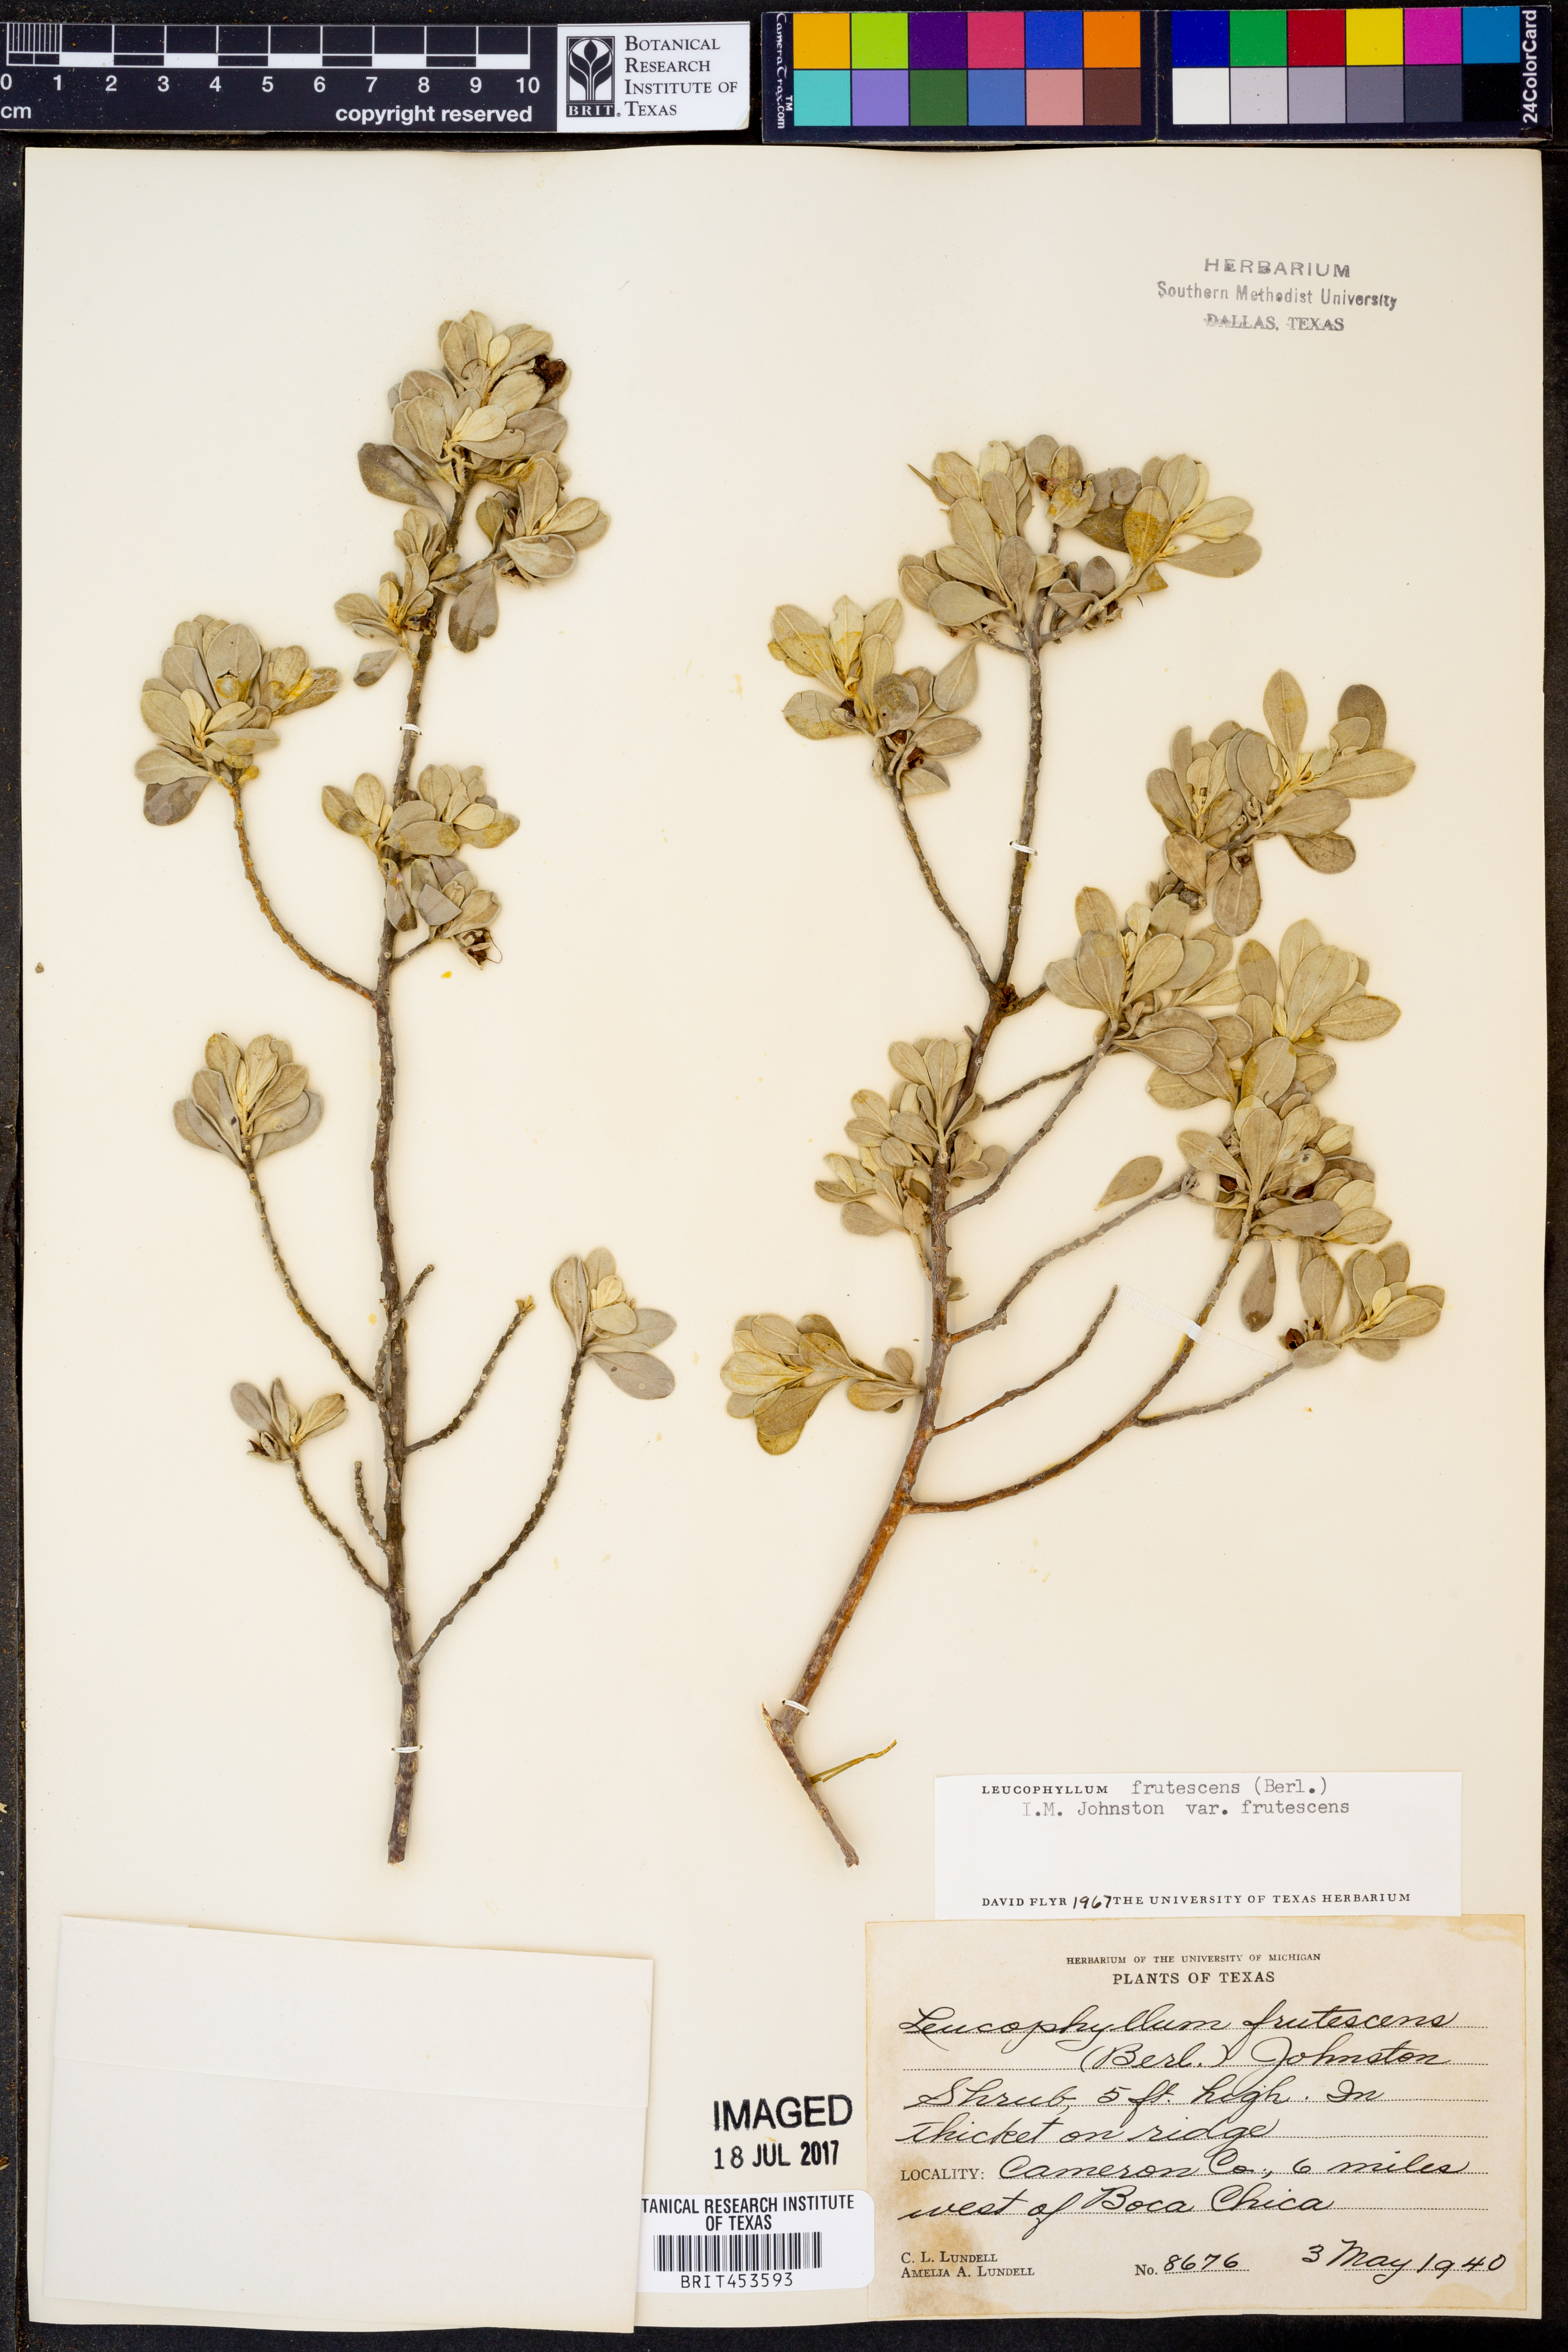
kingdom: Plantae
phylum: Tracheophyta
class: Magnoliopsida
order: Lamiales
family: Scrophulariaceae
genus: Leucophyllum
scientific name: Leucophyllum frutescens
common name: Texas silverleaf
